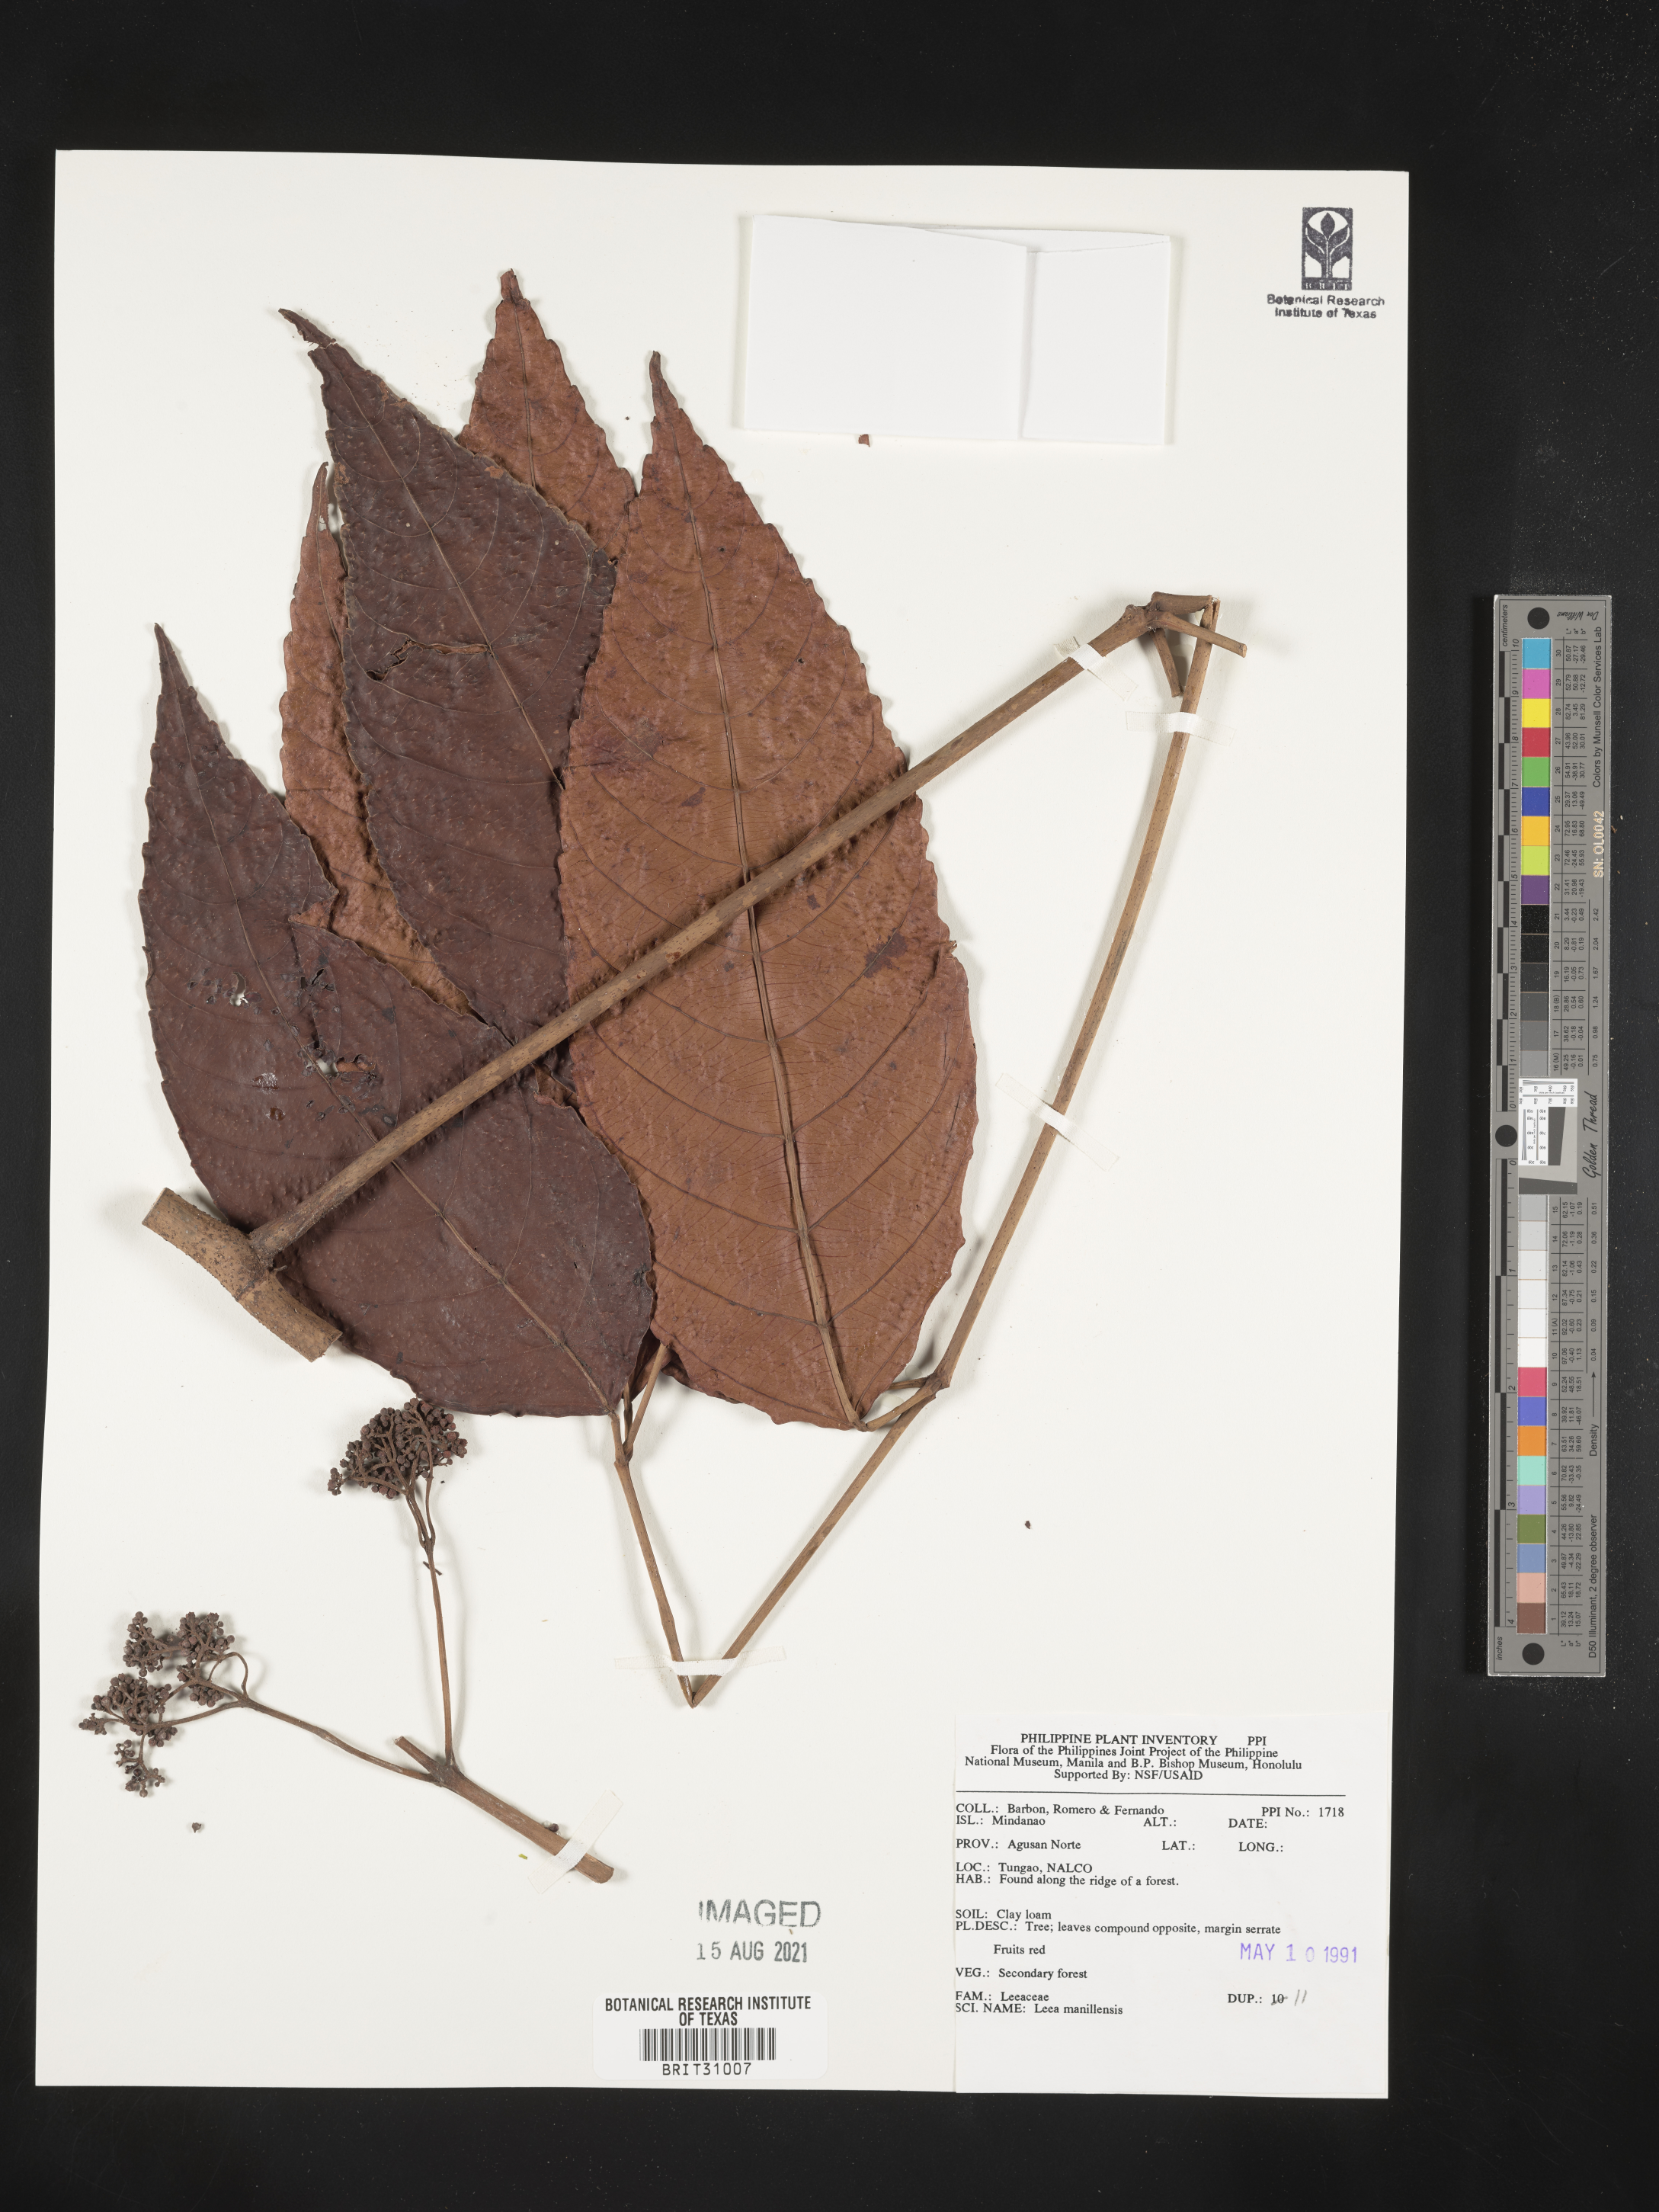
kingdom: Plantae
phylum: Tracheophyta
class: Magnoliopsida
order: Vitales
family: Vitaceae
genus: Leea
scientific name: Leea guineensis
